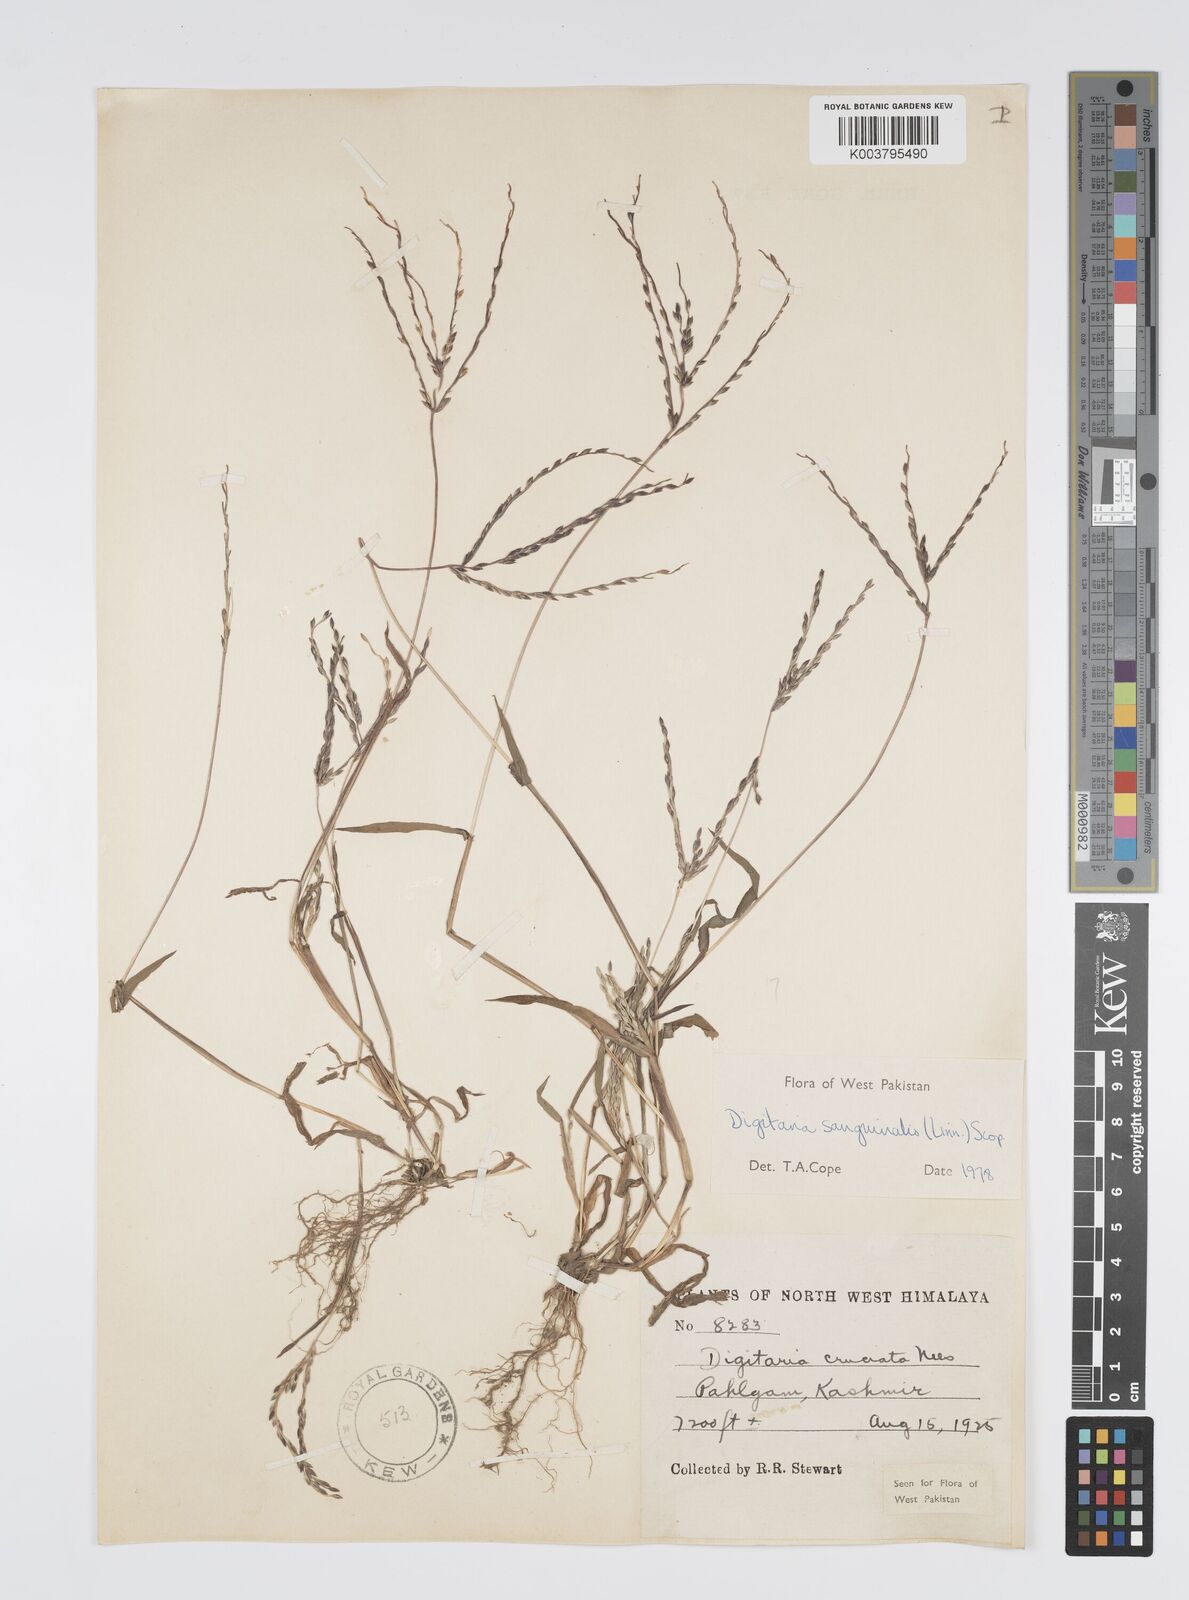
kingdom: Plantae
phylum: Tracheophyta
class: Liliopsida
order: Poales
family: Poaceae
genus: Digitaria
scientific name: Digitaria sanguinalis
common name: Hairy crabgrass
